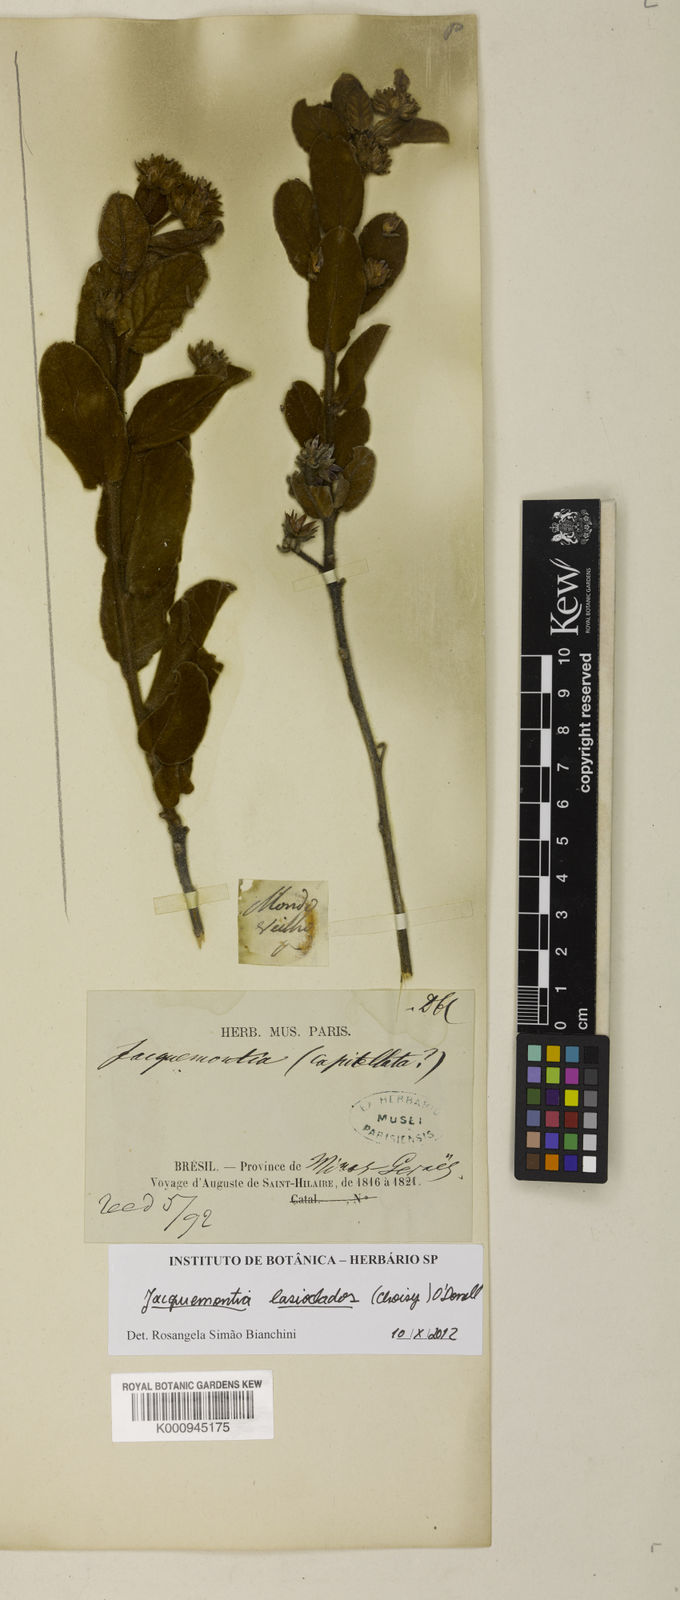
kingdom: Plantae
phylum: Tracheophyta
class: Magnoliopsida
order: Solanales
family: Convolvulaceae
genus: Jacquemontia
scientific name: Jacquemontia lasioclados
